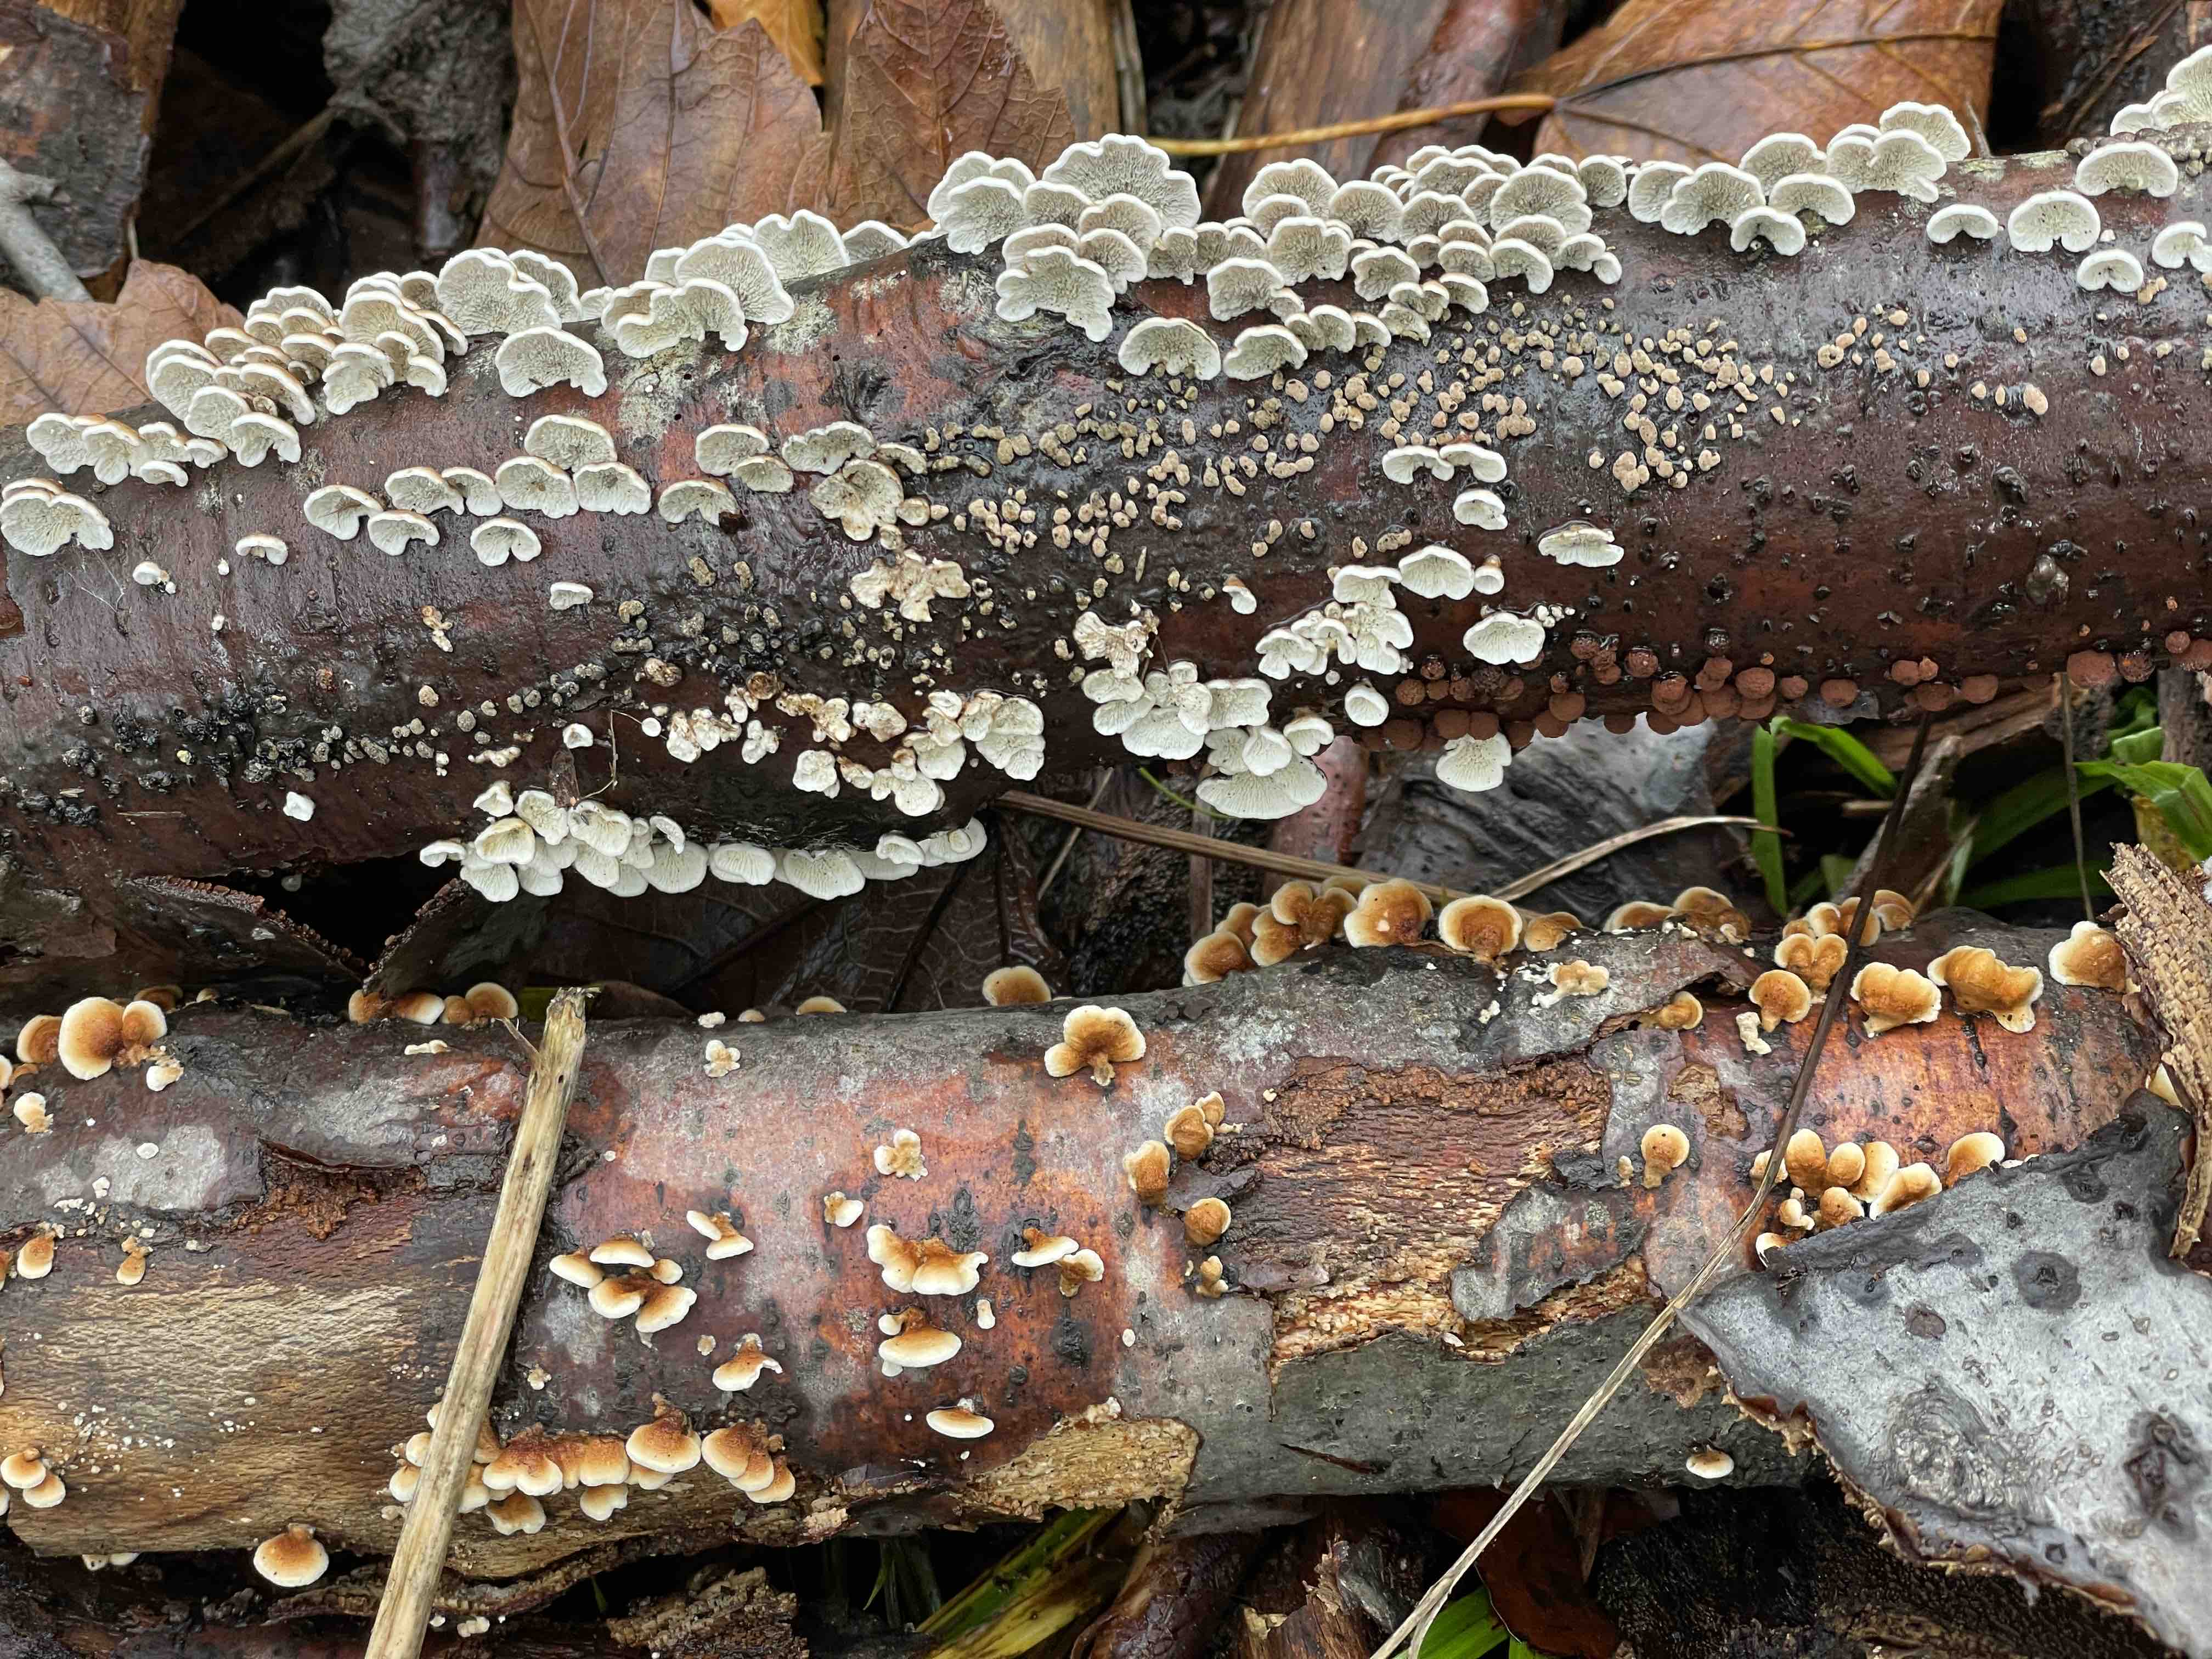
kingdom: Fungi
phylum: Basidiomycota
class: Agaricomycetes
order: Amylocorticiales
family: Amylocorticiaceae
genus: Plicaturopsis
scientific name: Plicaturopsis crispa
